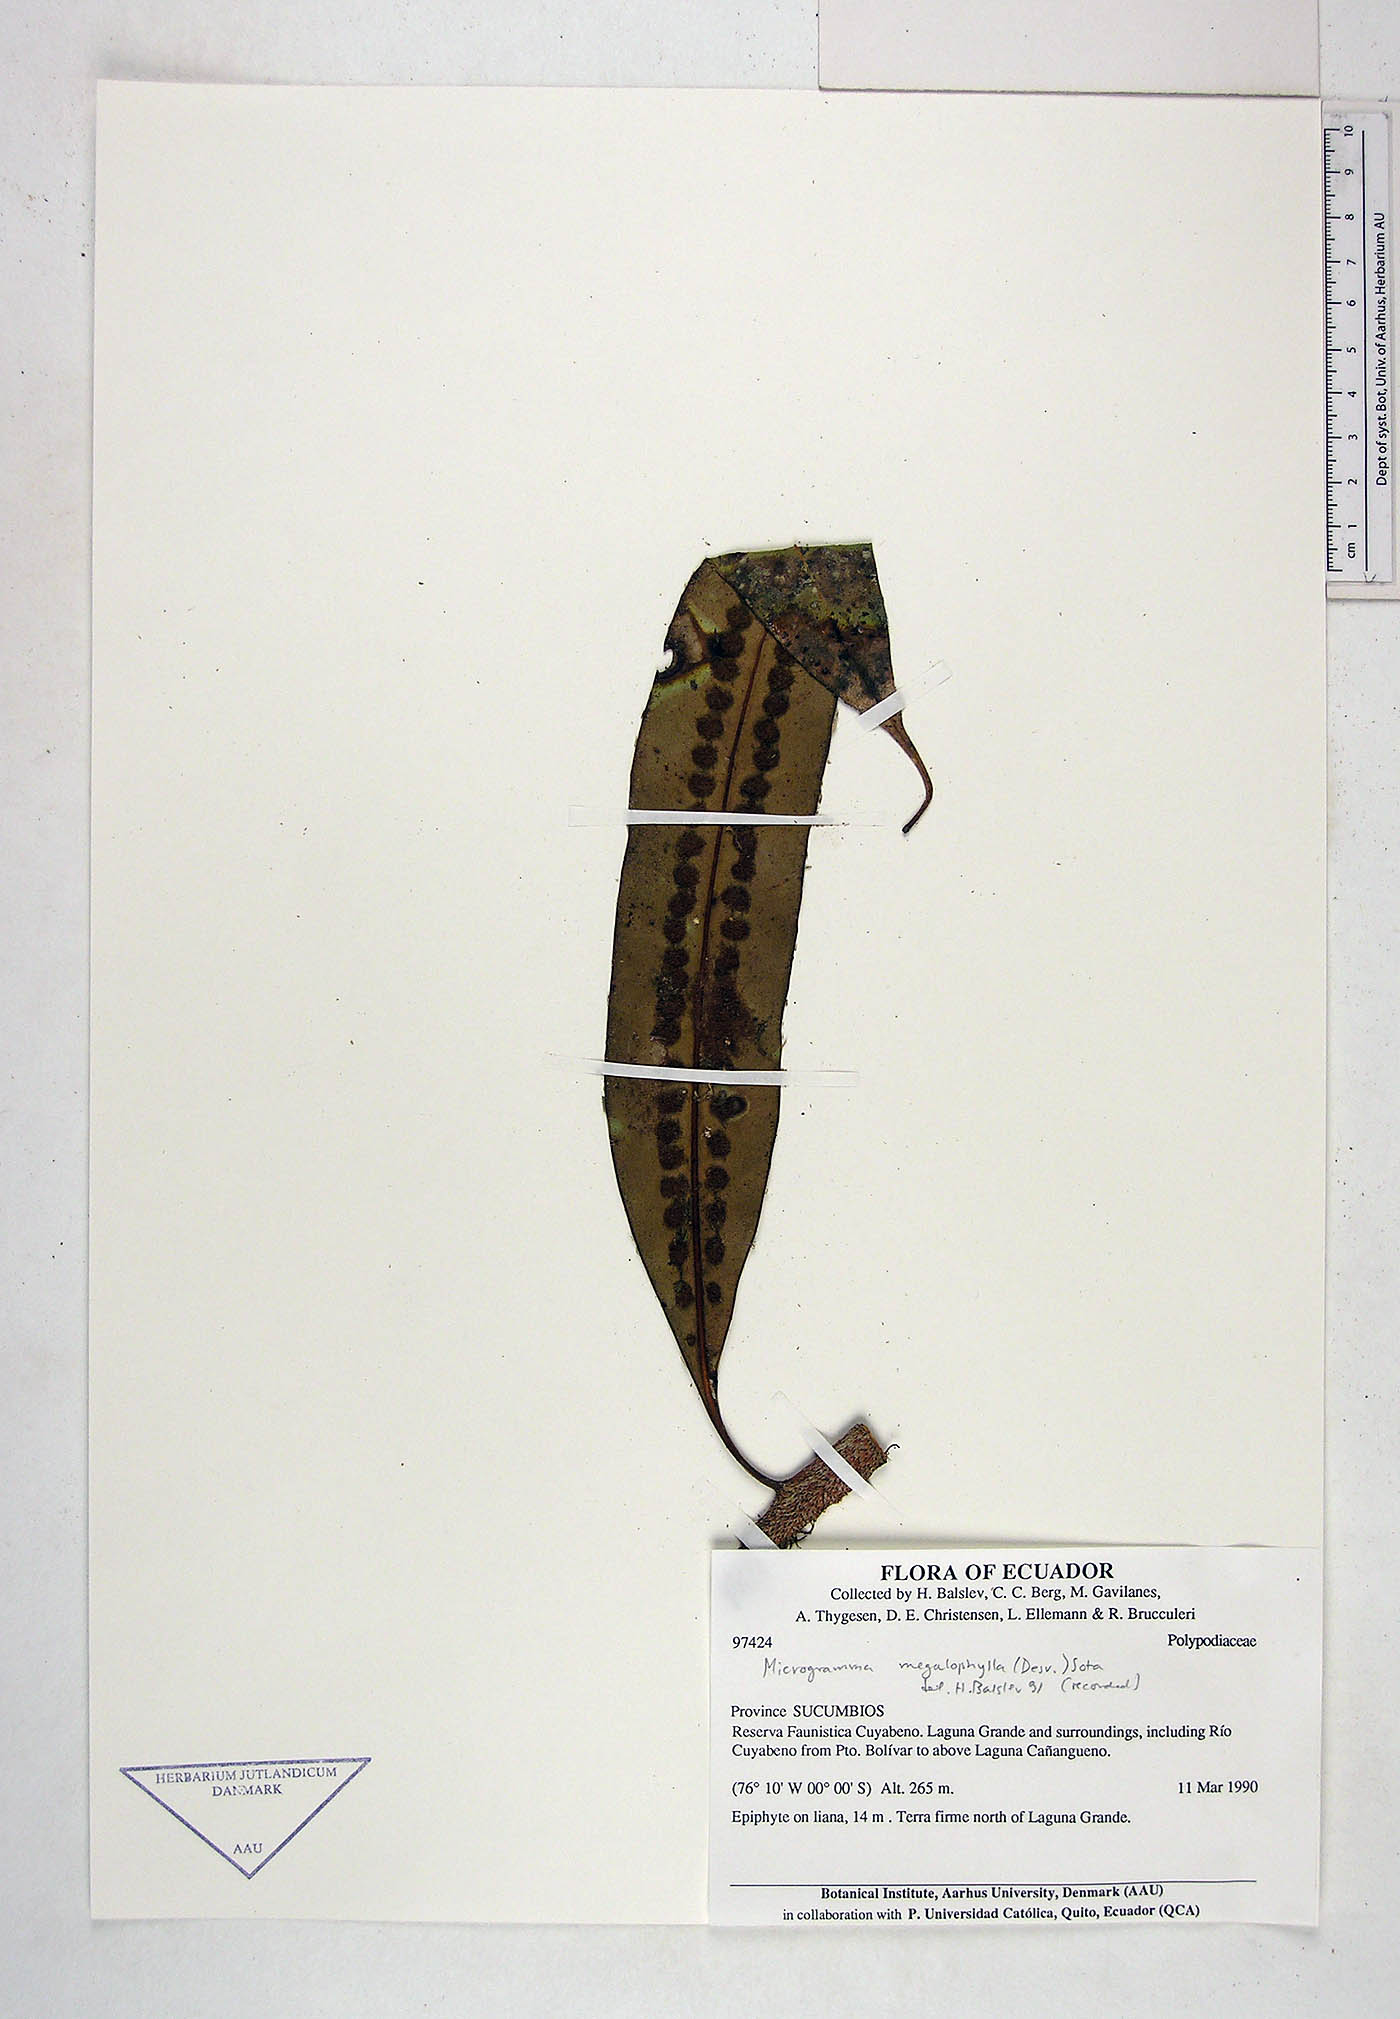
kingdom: Plantae
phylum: Tracheophyta
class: Polypodiopsida
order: Polypodiales
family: Polypodiaceae
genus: Microgramma
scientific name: Microgramma megalophylla
